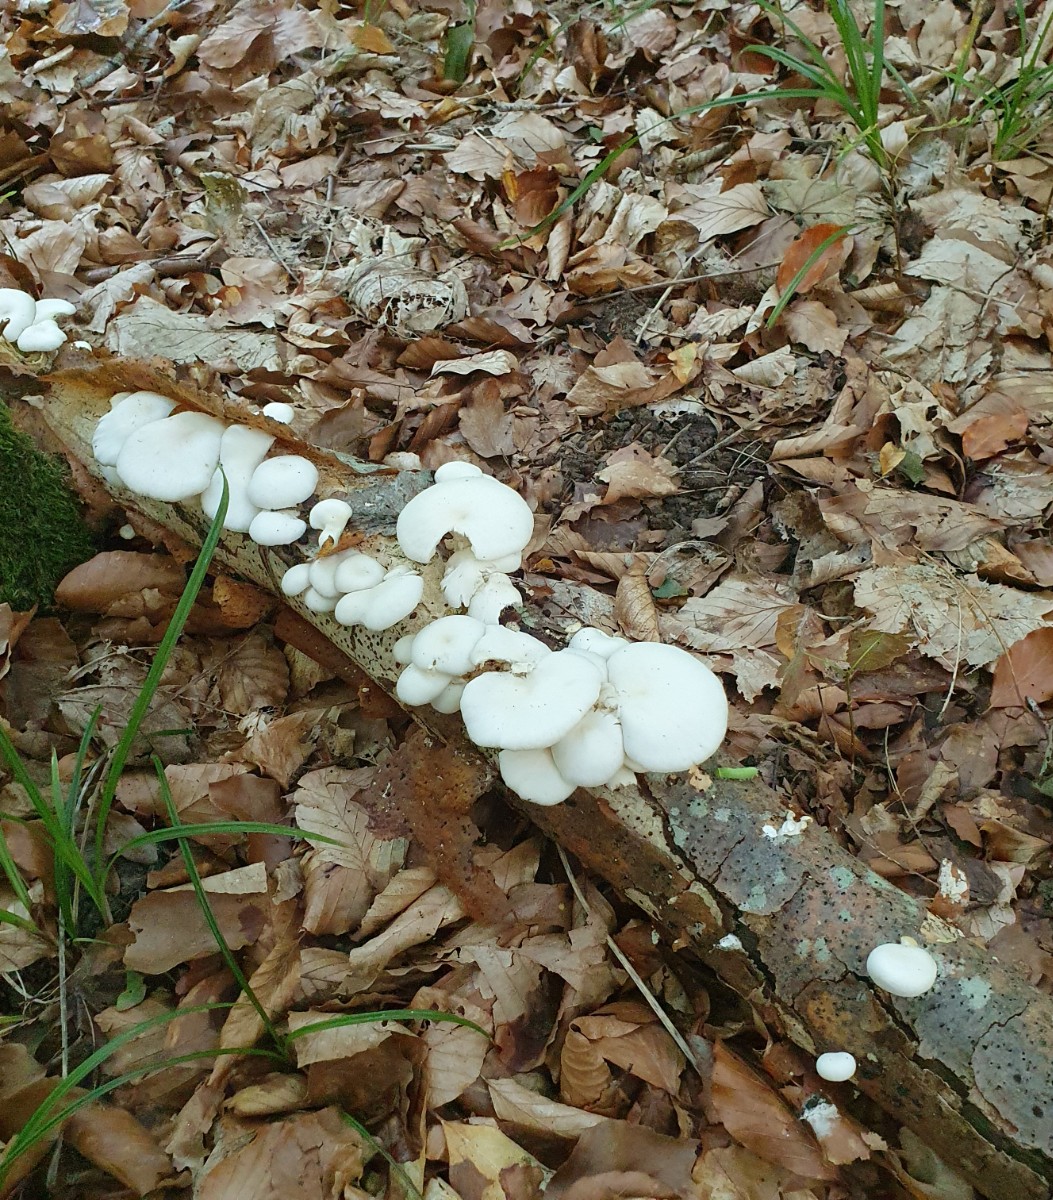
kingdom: Fungi
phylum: Basidiomycota
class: Agaricomycetes
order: Agaricales
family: Pleurotaceae
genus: Pleurotus
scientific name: Pleurotus pulmonarius
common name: sommer-østershat
